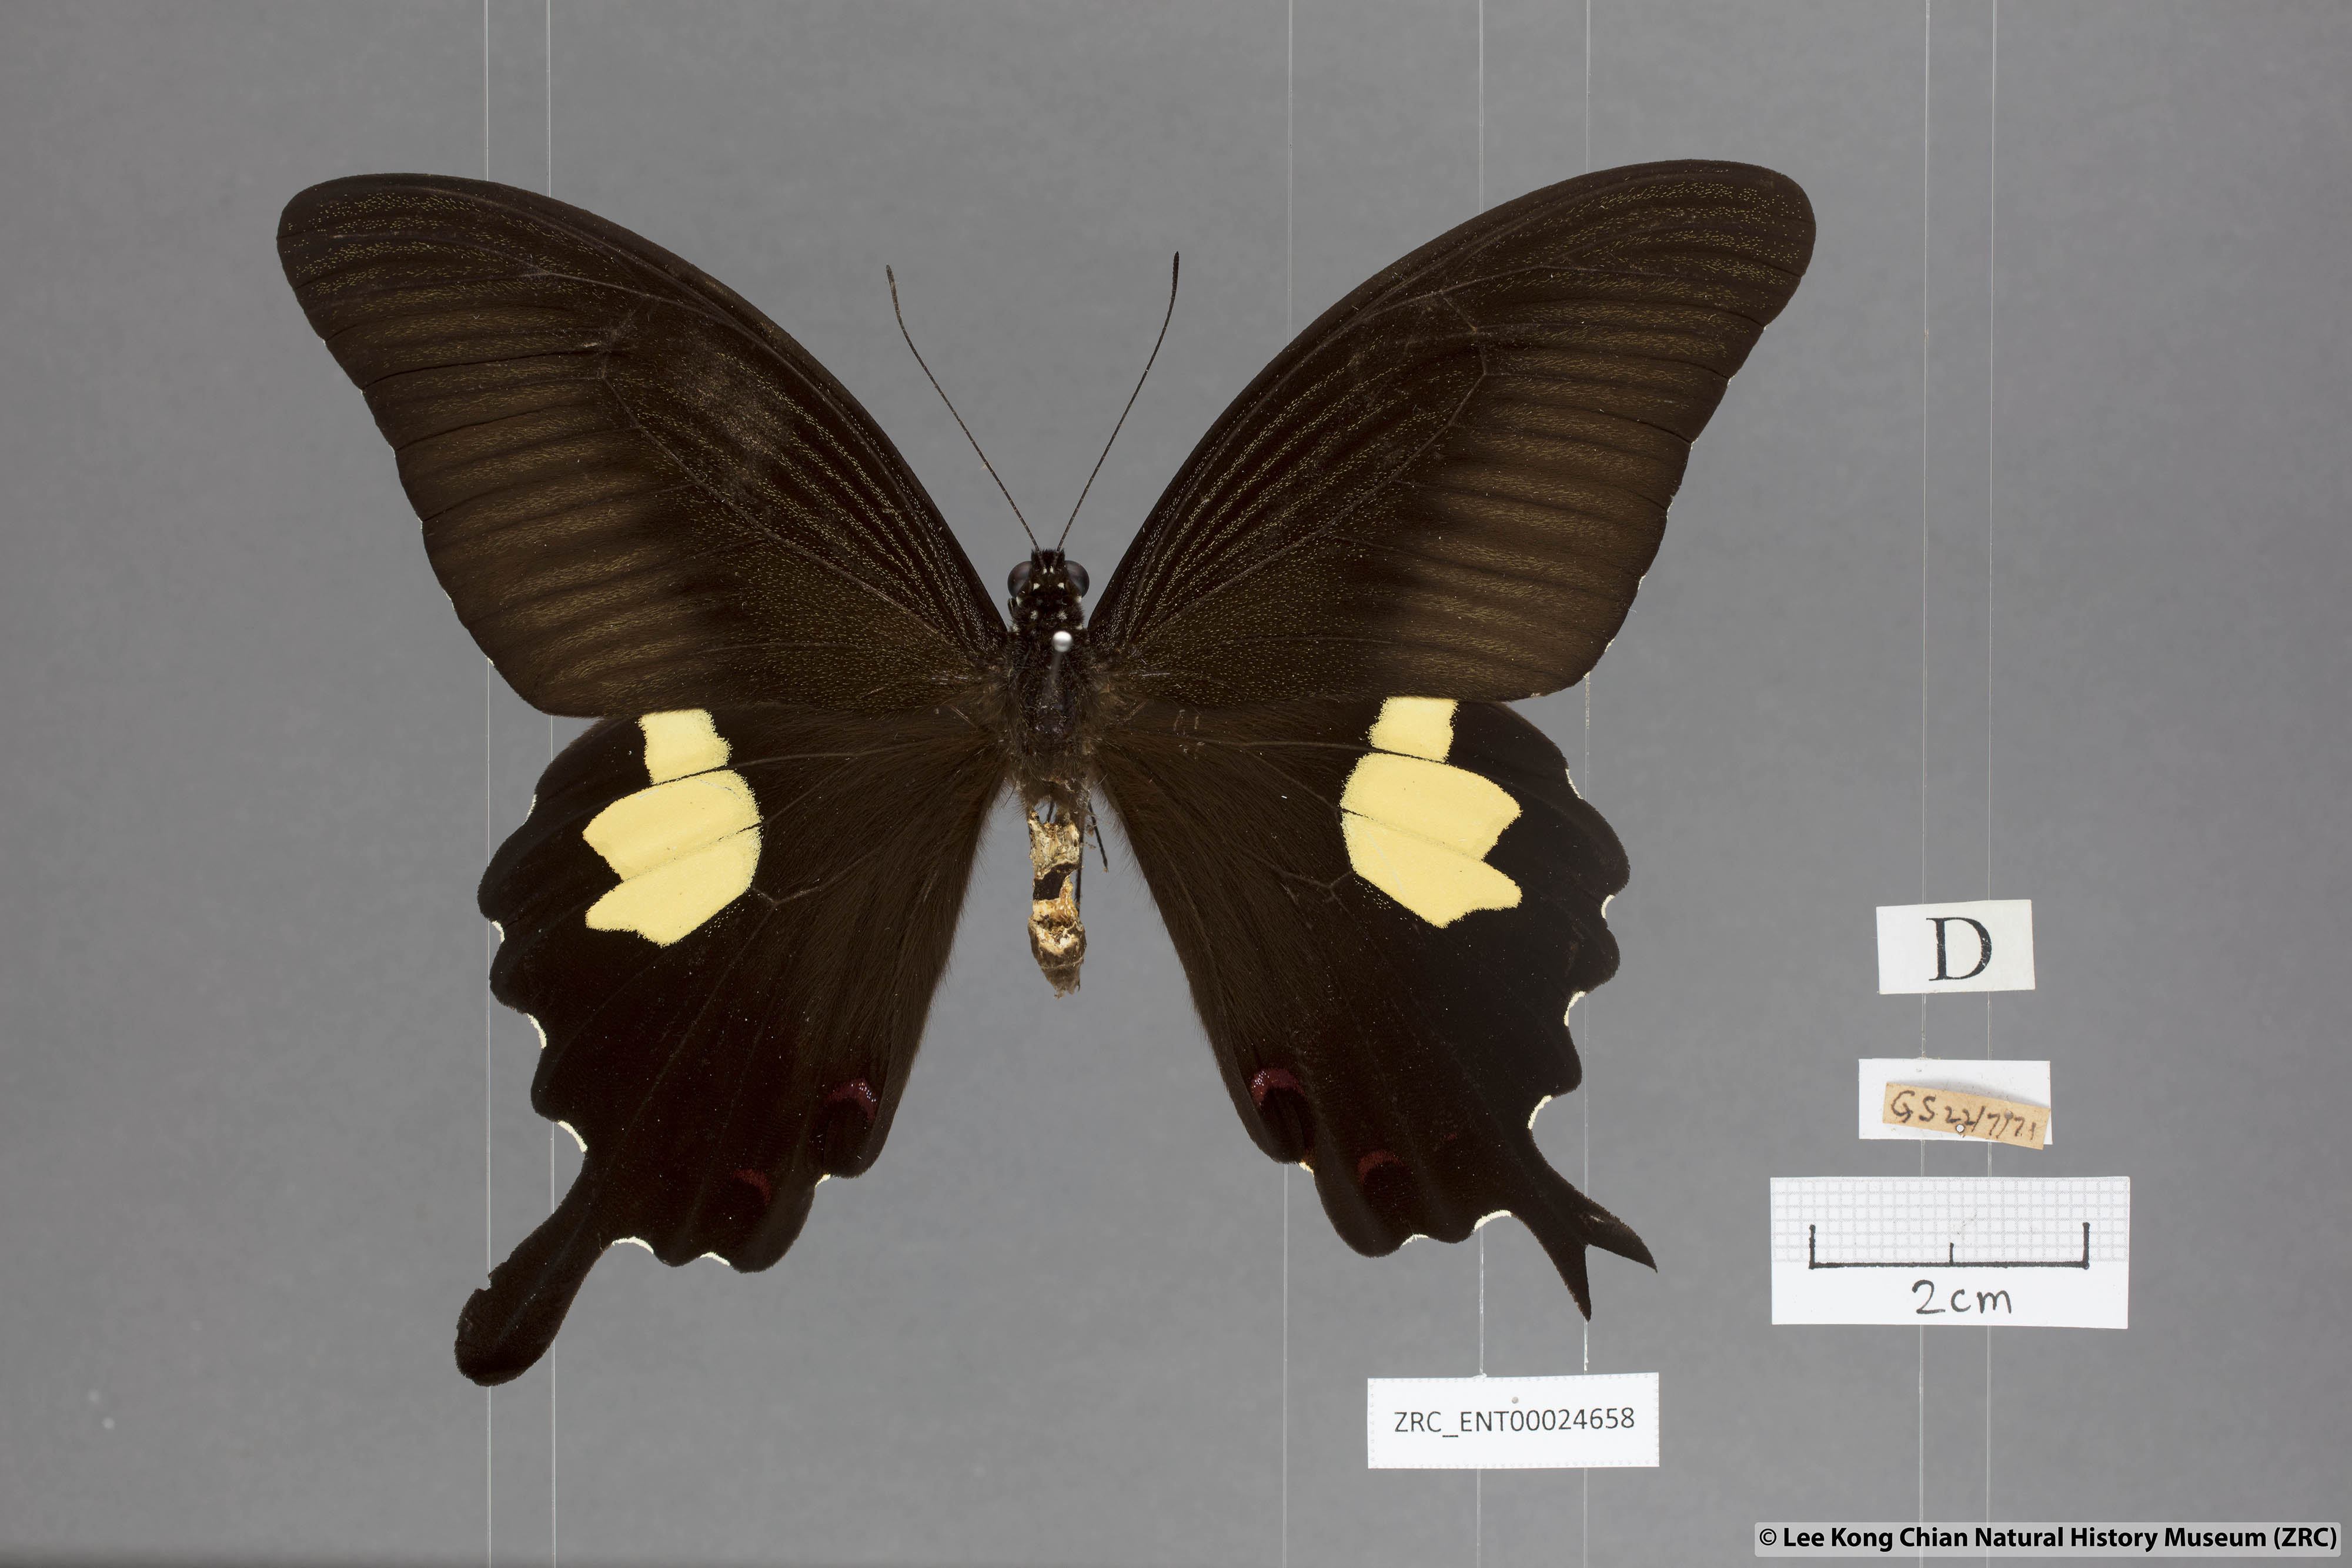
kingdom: Animalia
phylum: Arthropoda
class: Insecta
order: Lepidoptera
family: Papilionidae
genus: Papilio
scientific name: Papilio helenus
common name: Red helen
